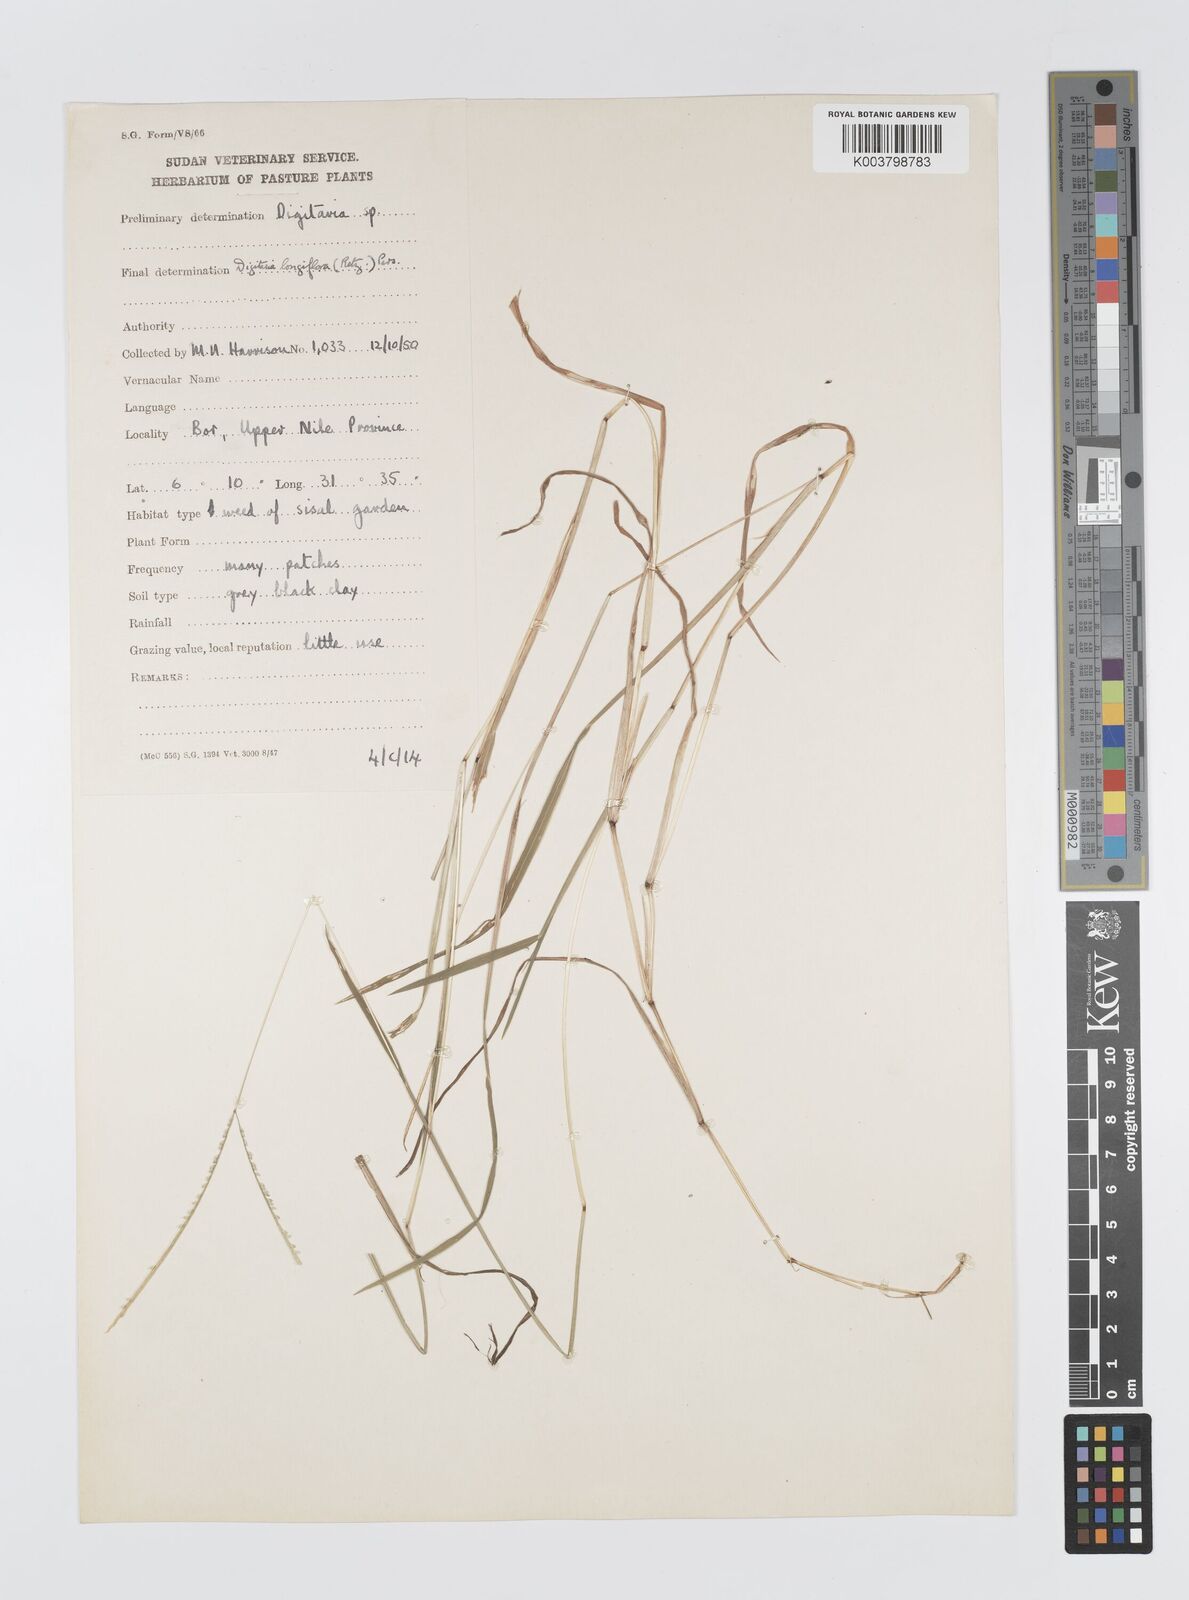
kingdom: Plantae
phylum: Tracheophyta
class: Liliopsida
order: Poales
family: Poaceae
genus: Digitaria
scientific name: Digitaria longiflora
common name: Wire crabgrass
